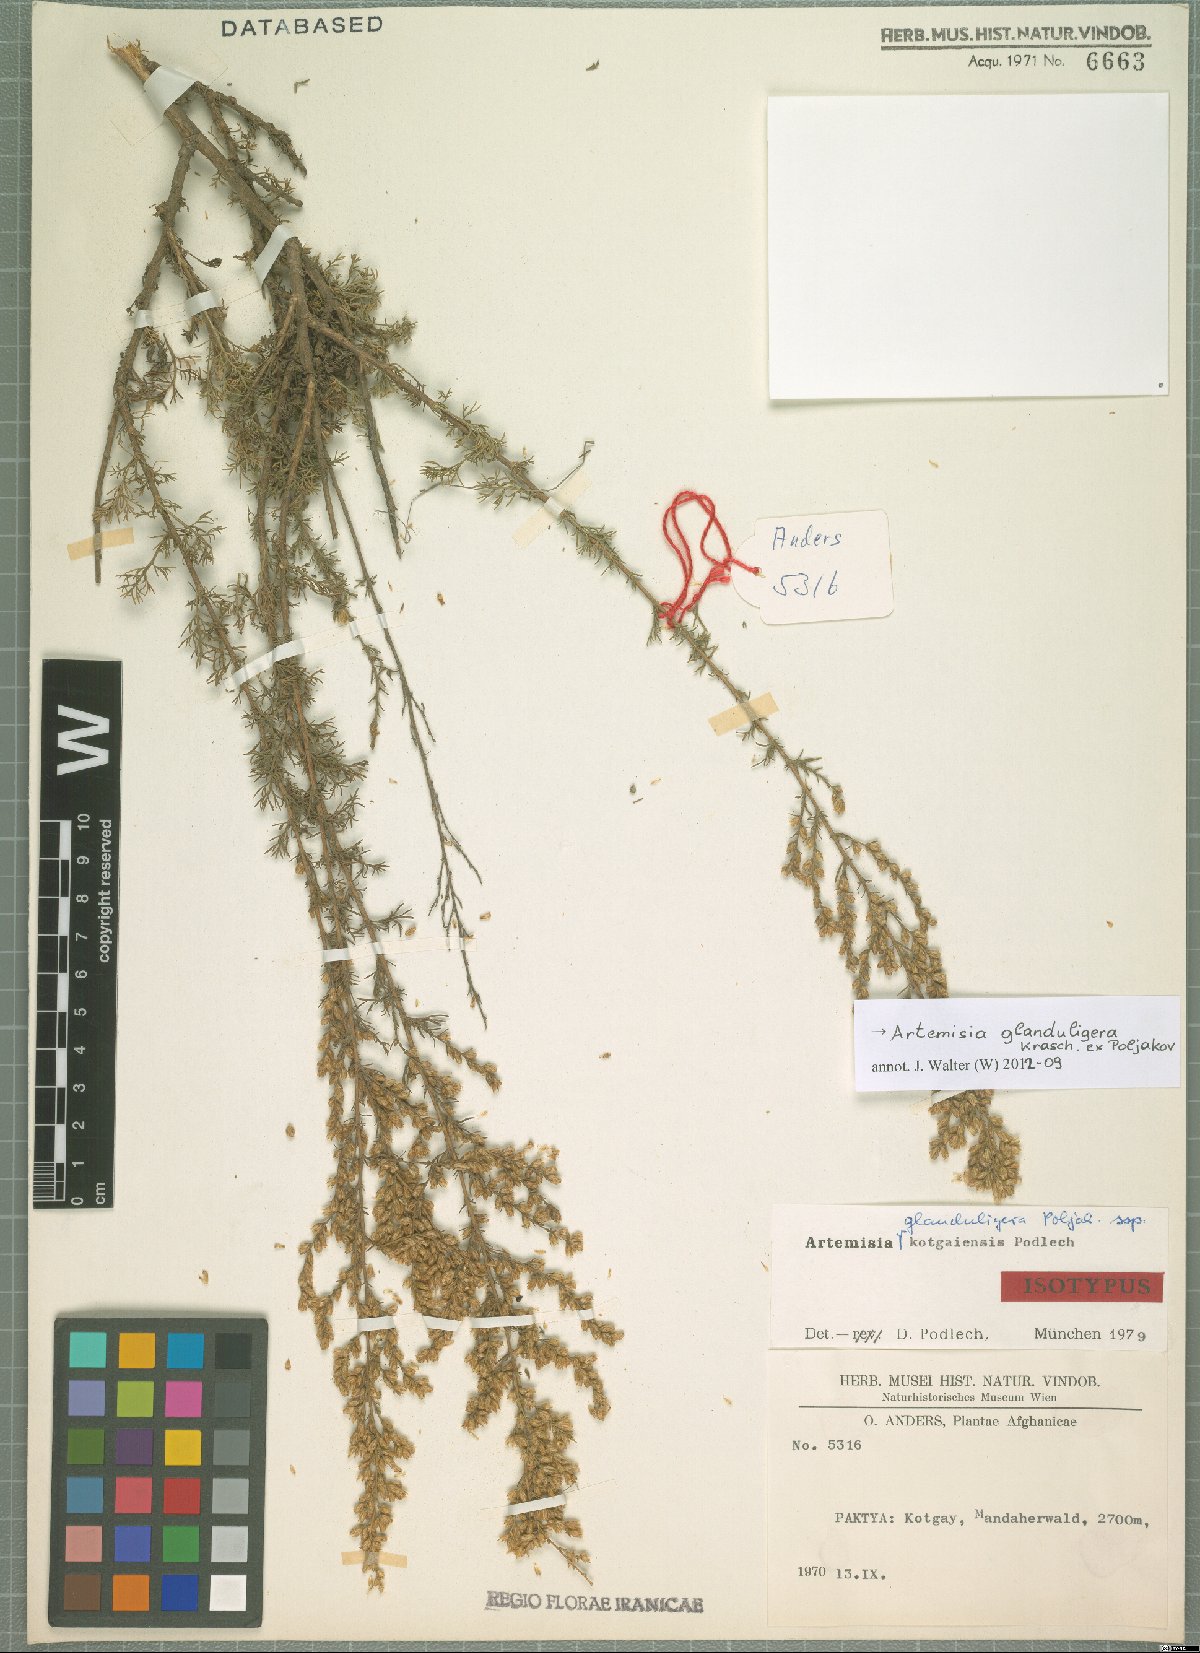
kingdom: Plantae
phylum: Tracheophyta
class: Magnoliopsida
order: Asterales
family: Asteraceae
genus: Artemisia
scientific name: Artemisia glanduligera
